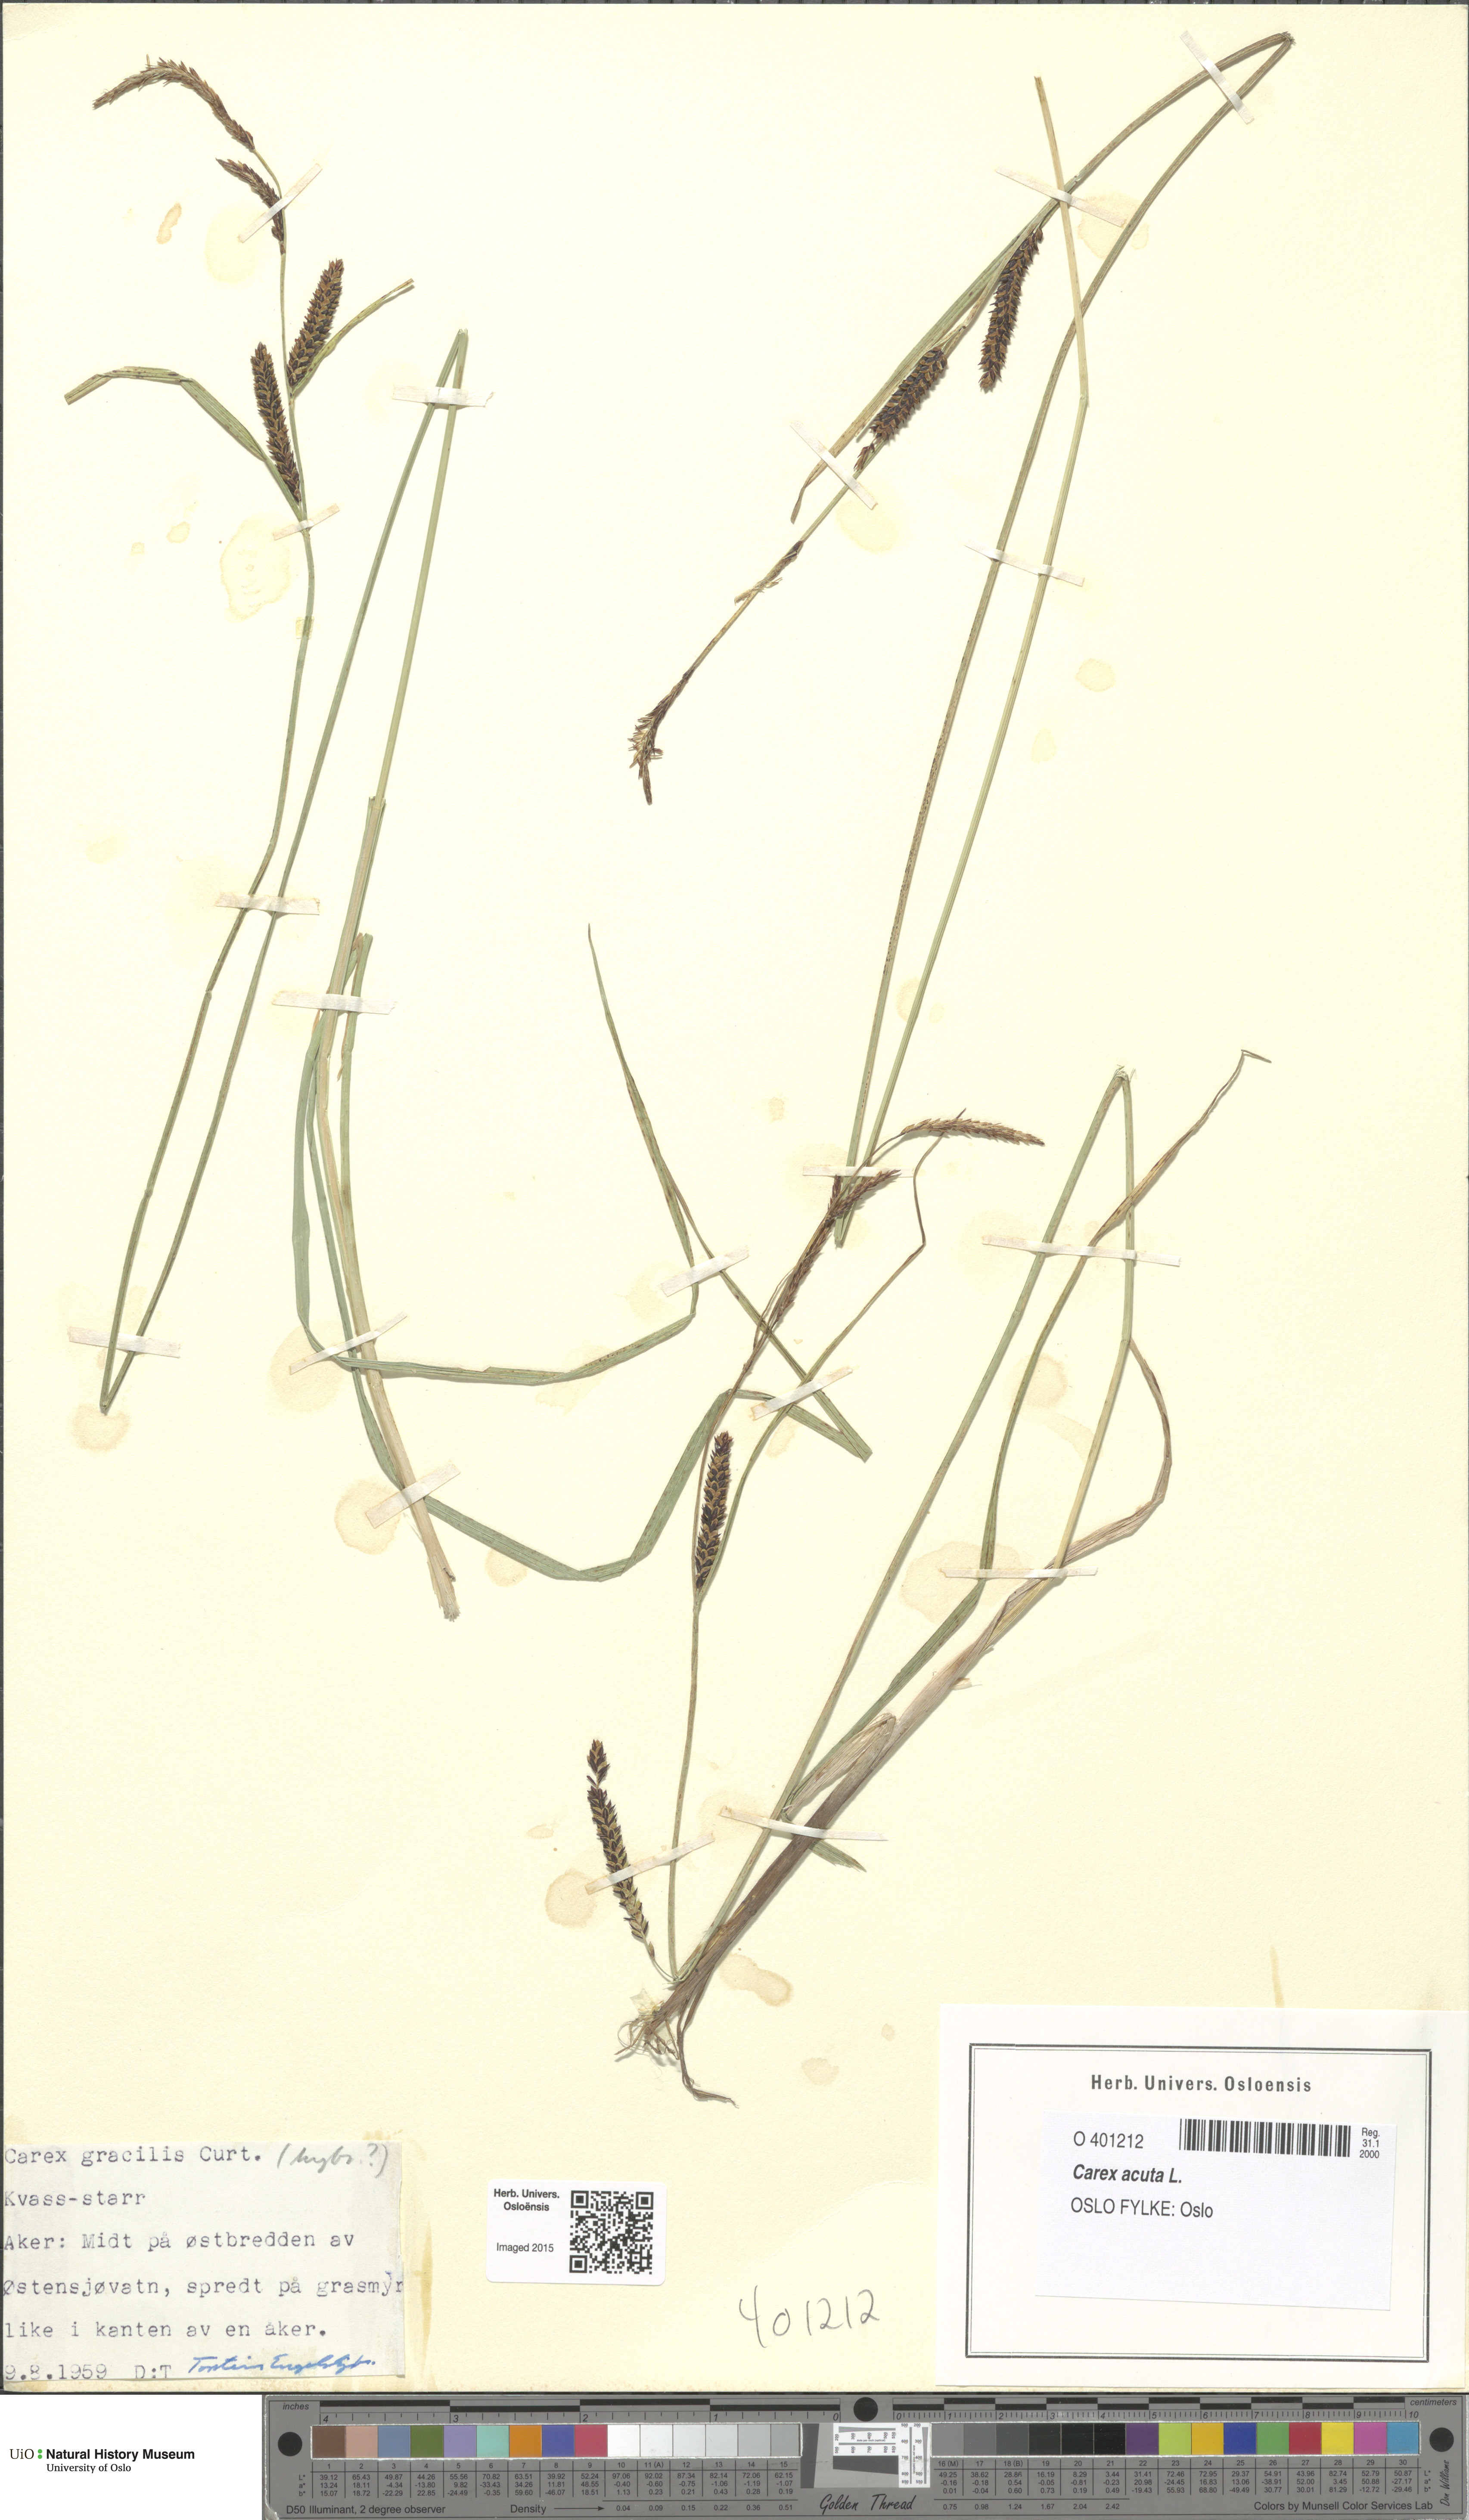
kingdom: Plantae
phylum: Tracheophyta
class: Liliopsida
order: Poales
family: Cyperaceae
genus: Carex
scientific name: Carex acuta
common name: Slender tufted-sedge
